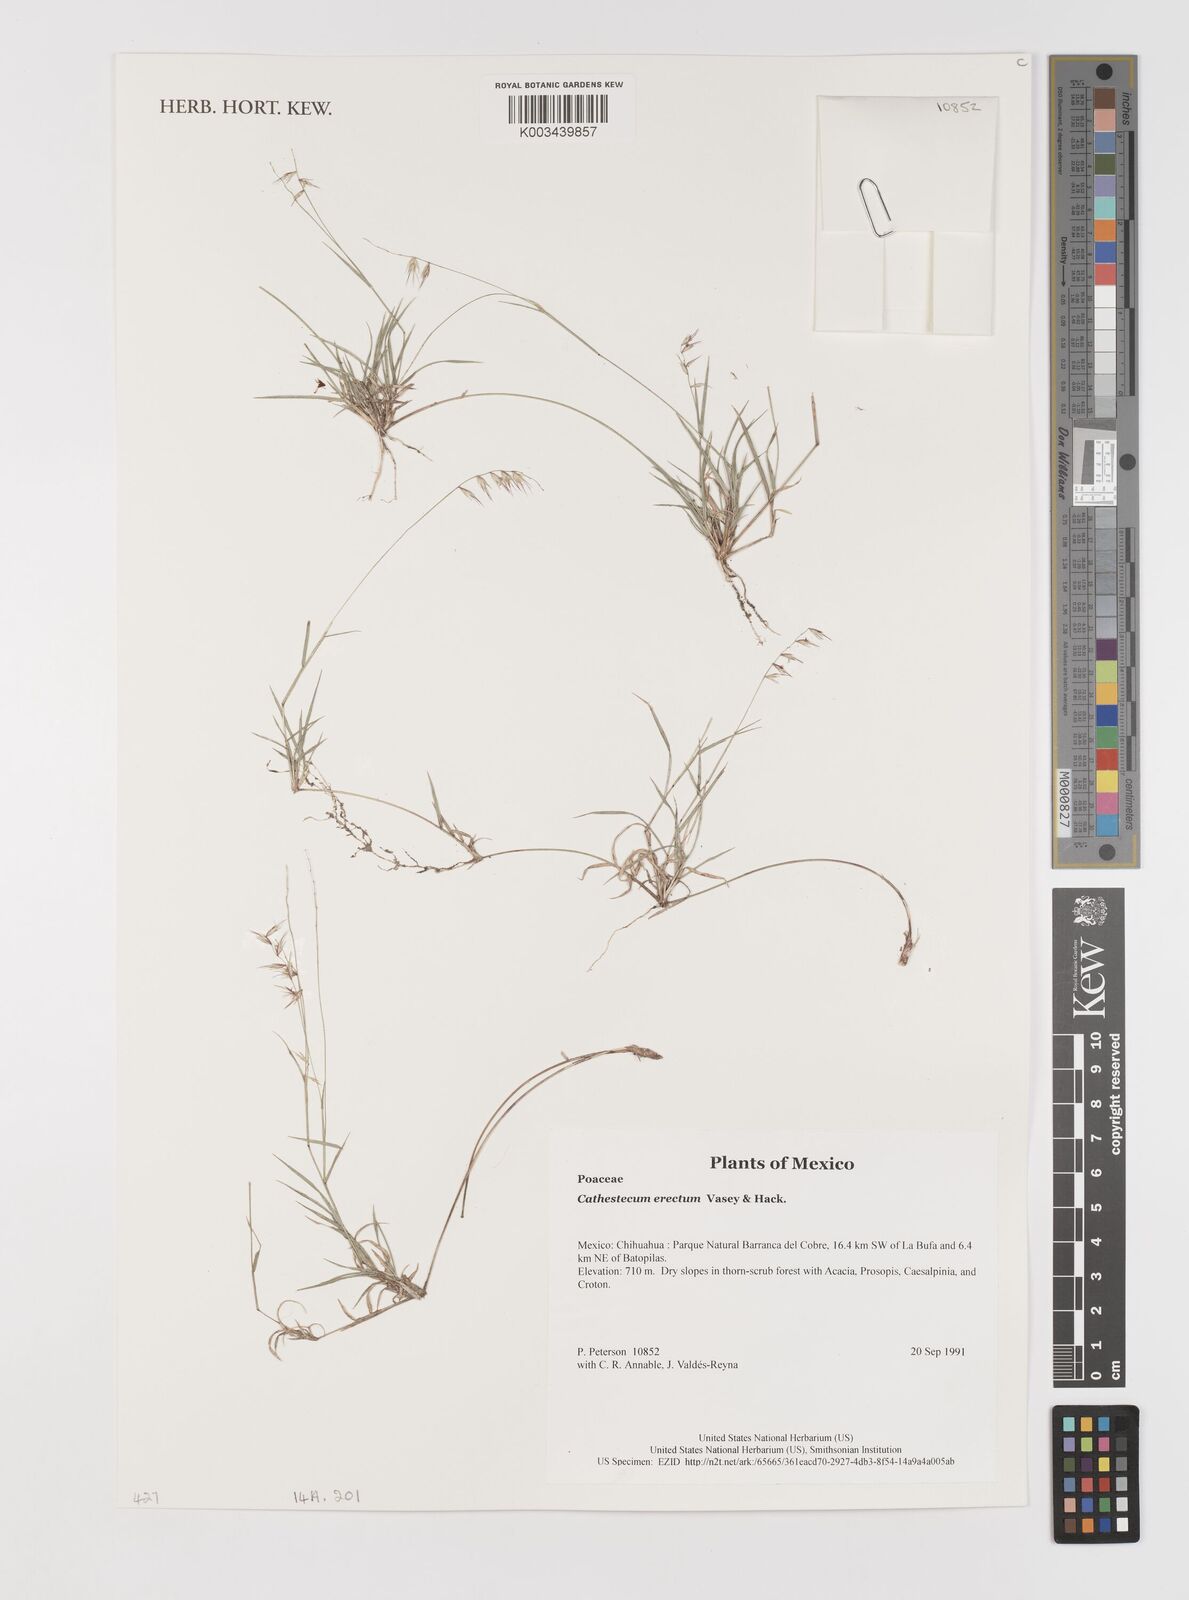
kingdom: Plantae
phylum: Tracheophyta
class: Liliopsida
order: Poales
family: Poaceae
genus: Bouteloua
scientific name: Bouteloua erecta
